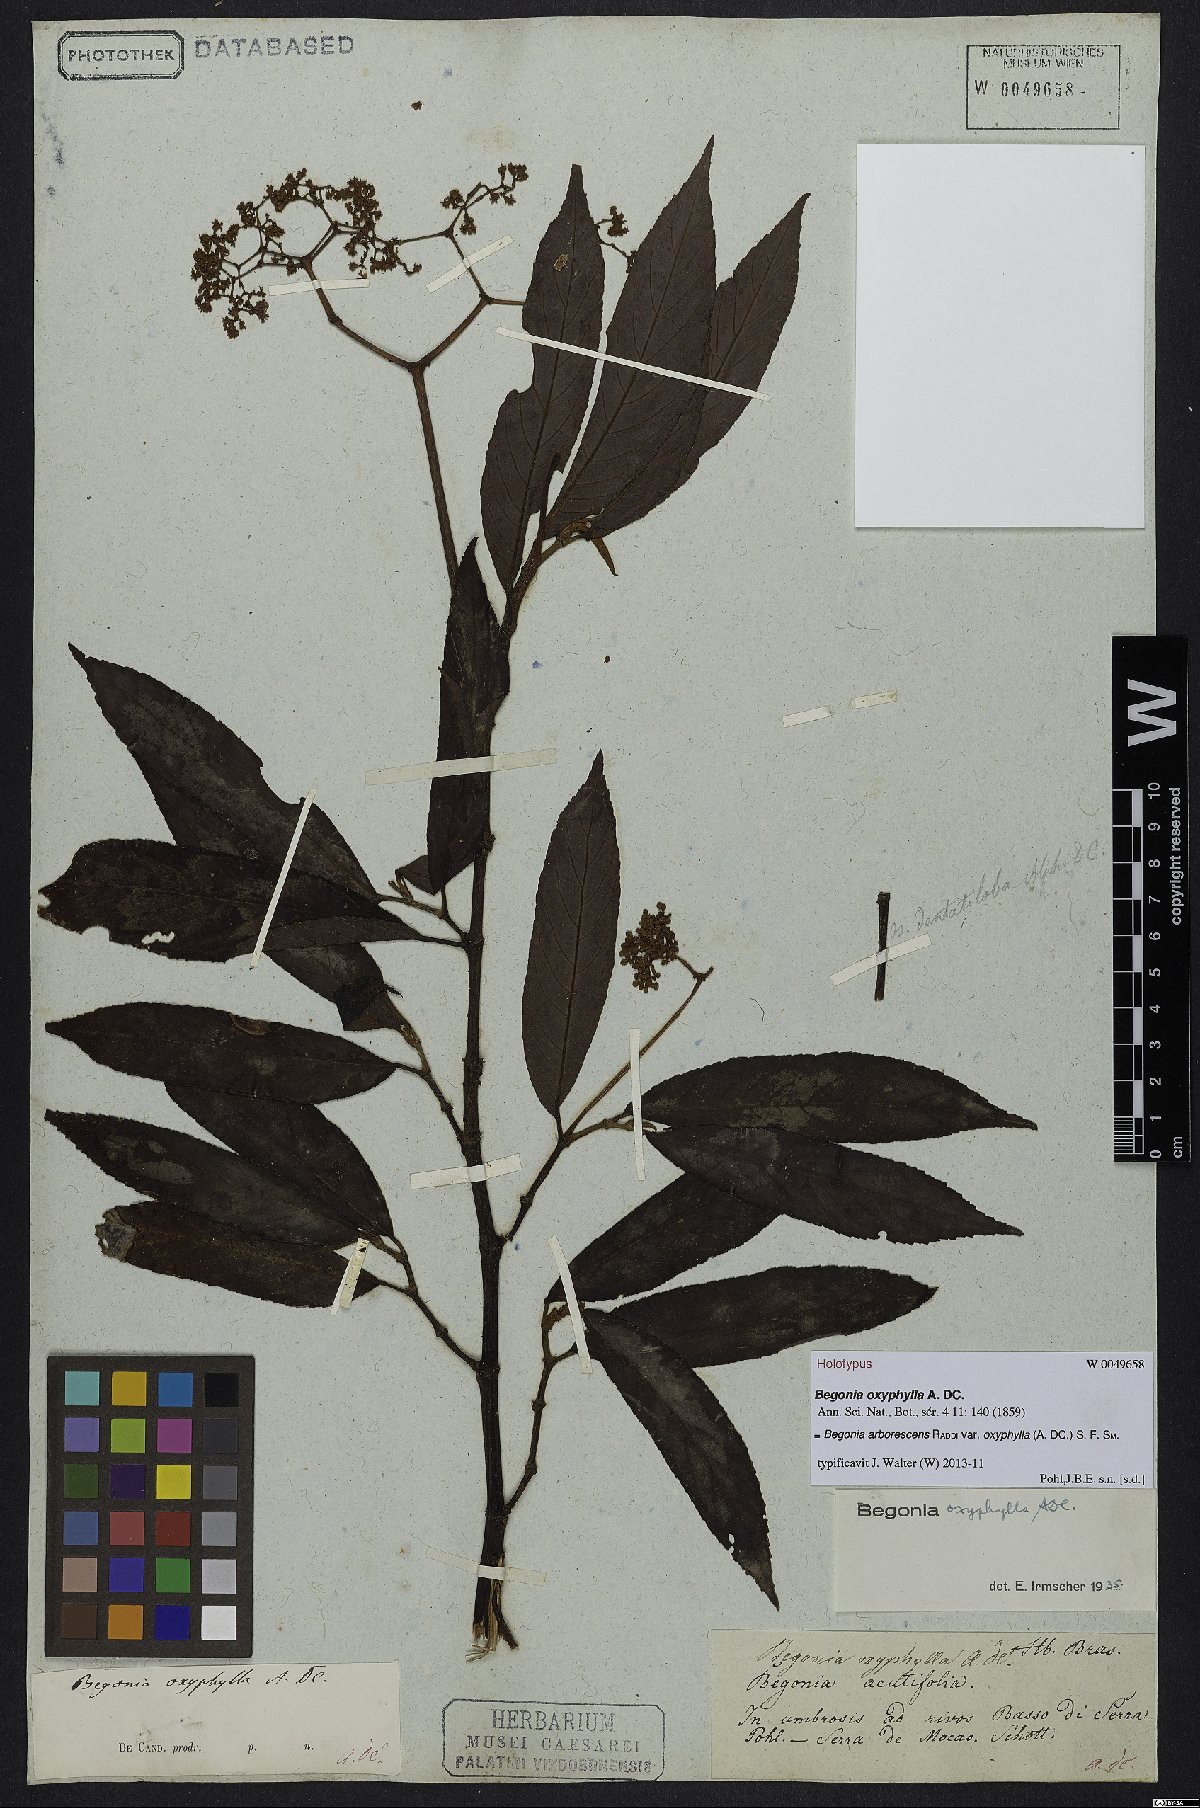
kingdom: Plantae
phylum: Tracheophyta
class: Magnoliopsida
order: Cucurbitales
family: Begoniaceae
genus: Begonia
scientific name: Begonia arborescens
